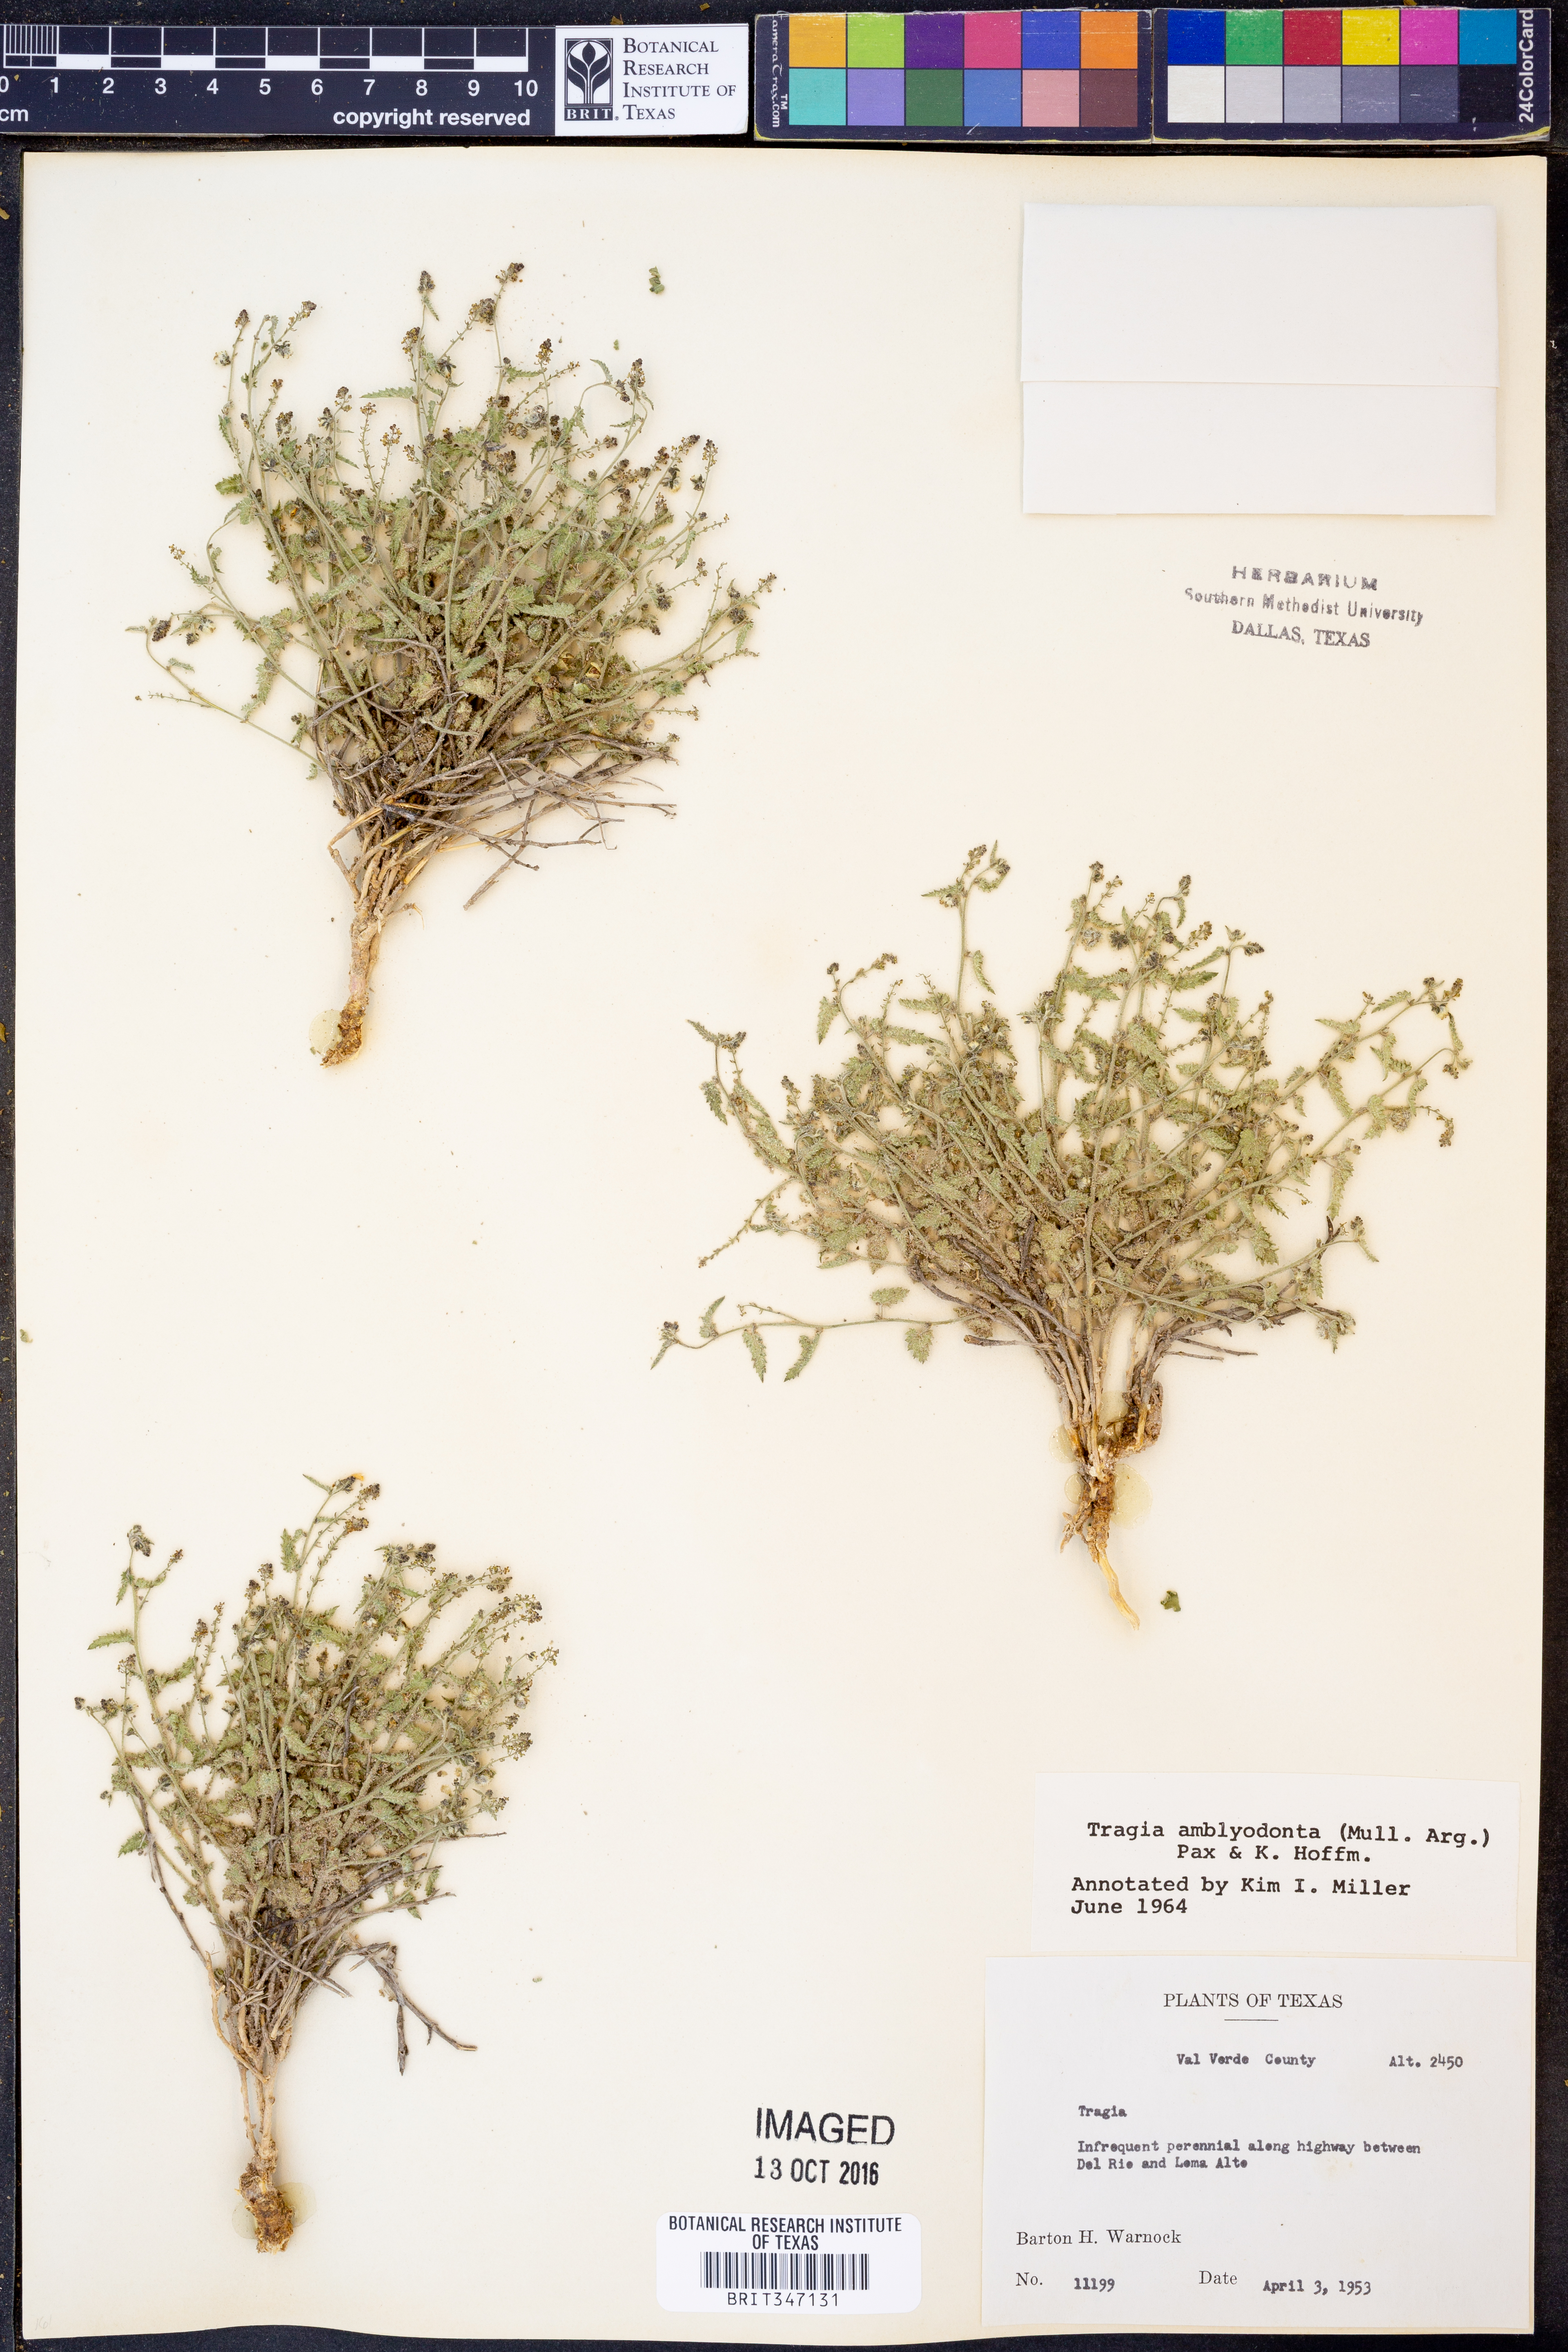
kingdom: Plantae
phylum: Tracheophyta
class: Magnoliopsida
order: Malpighiales
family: Euphorbiaceae
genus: Tragia
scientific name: Tragia amblyodonta
